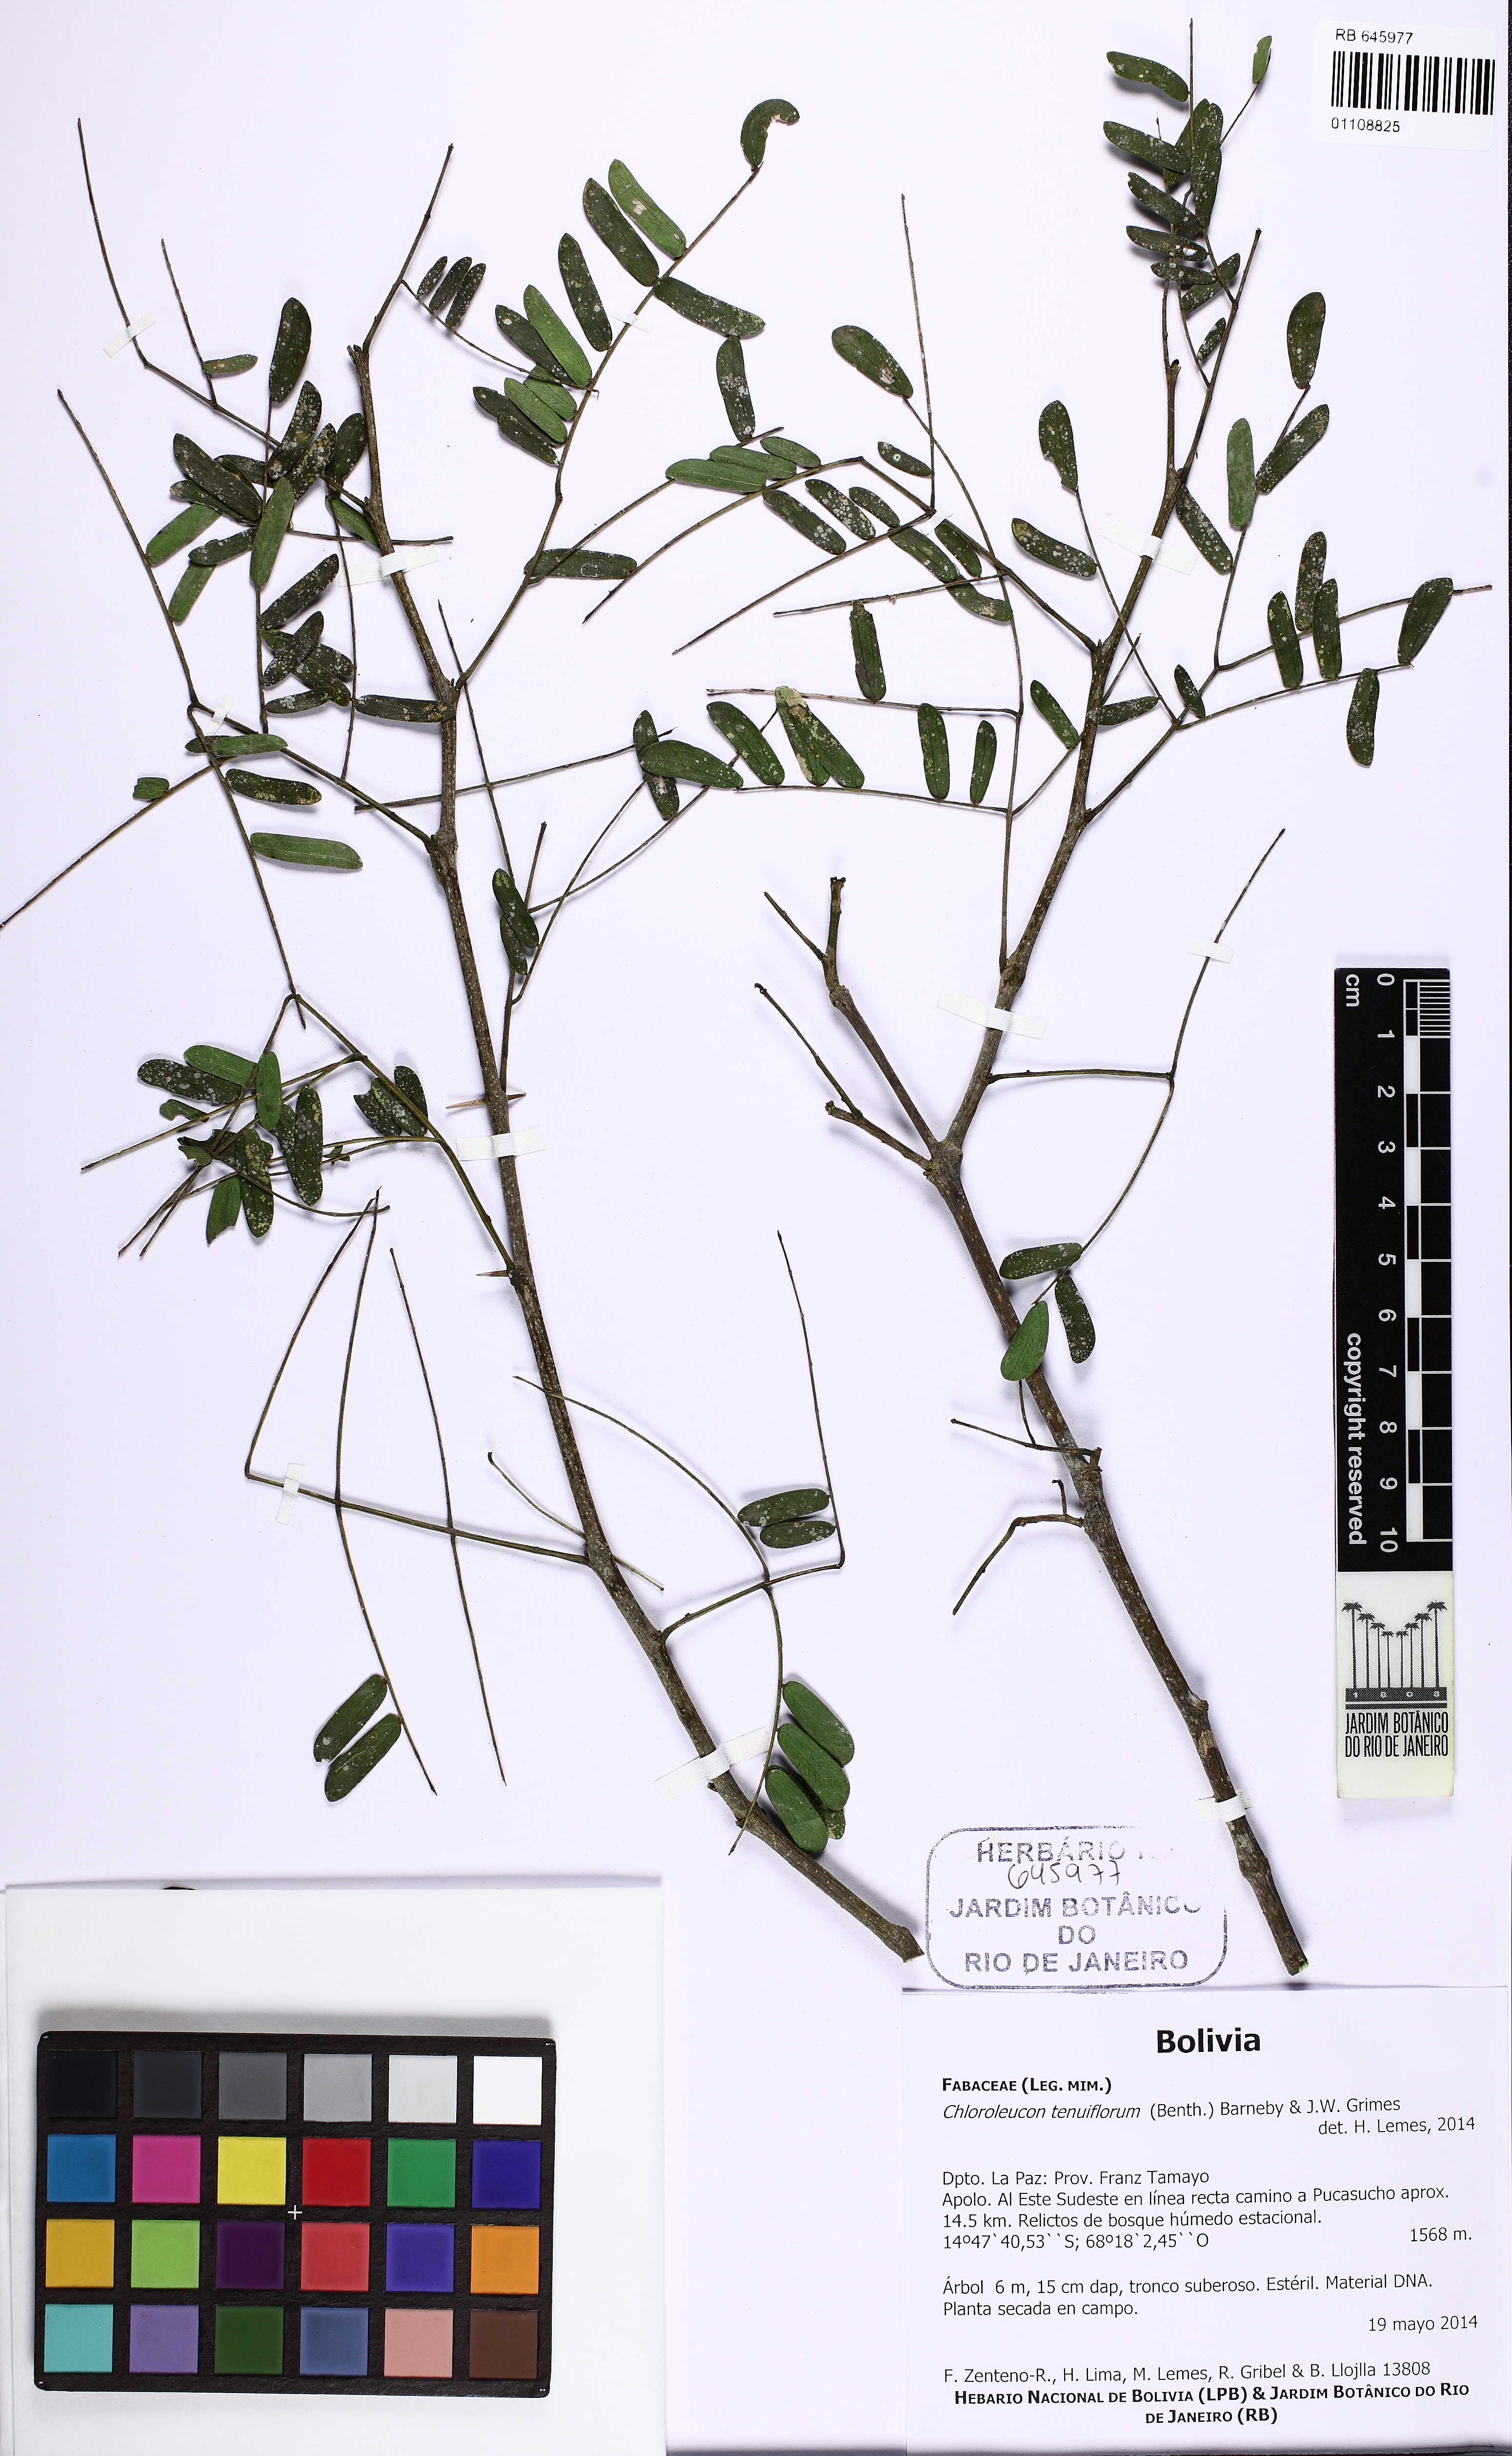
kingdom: Plantae
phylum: Tracheophyta
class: Magnoliopsida
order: Fabales
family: Fabaceae
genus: Chloroleucon
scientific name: Chloroleucon tenuiflorum
